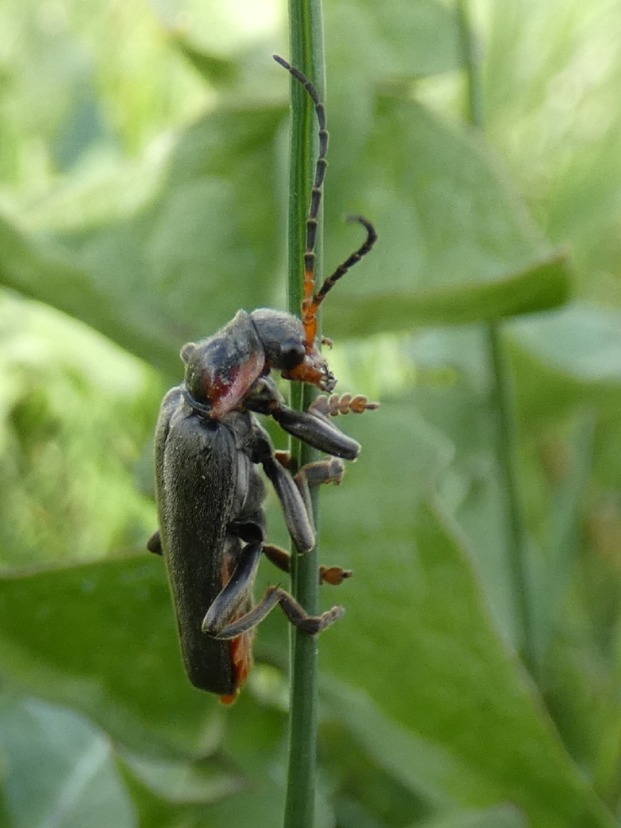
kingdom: Animalia
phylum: Arthropoda
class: Insecta
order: Coleoptera
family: Cantharidae
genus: Cantharis
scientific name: Cantharis fusca
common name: Stor blødvinge
